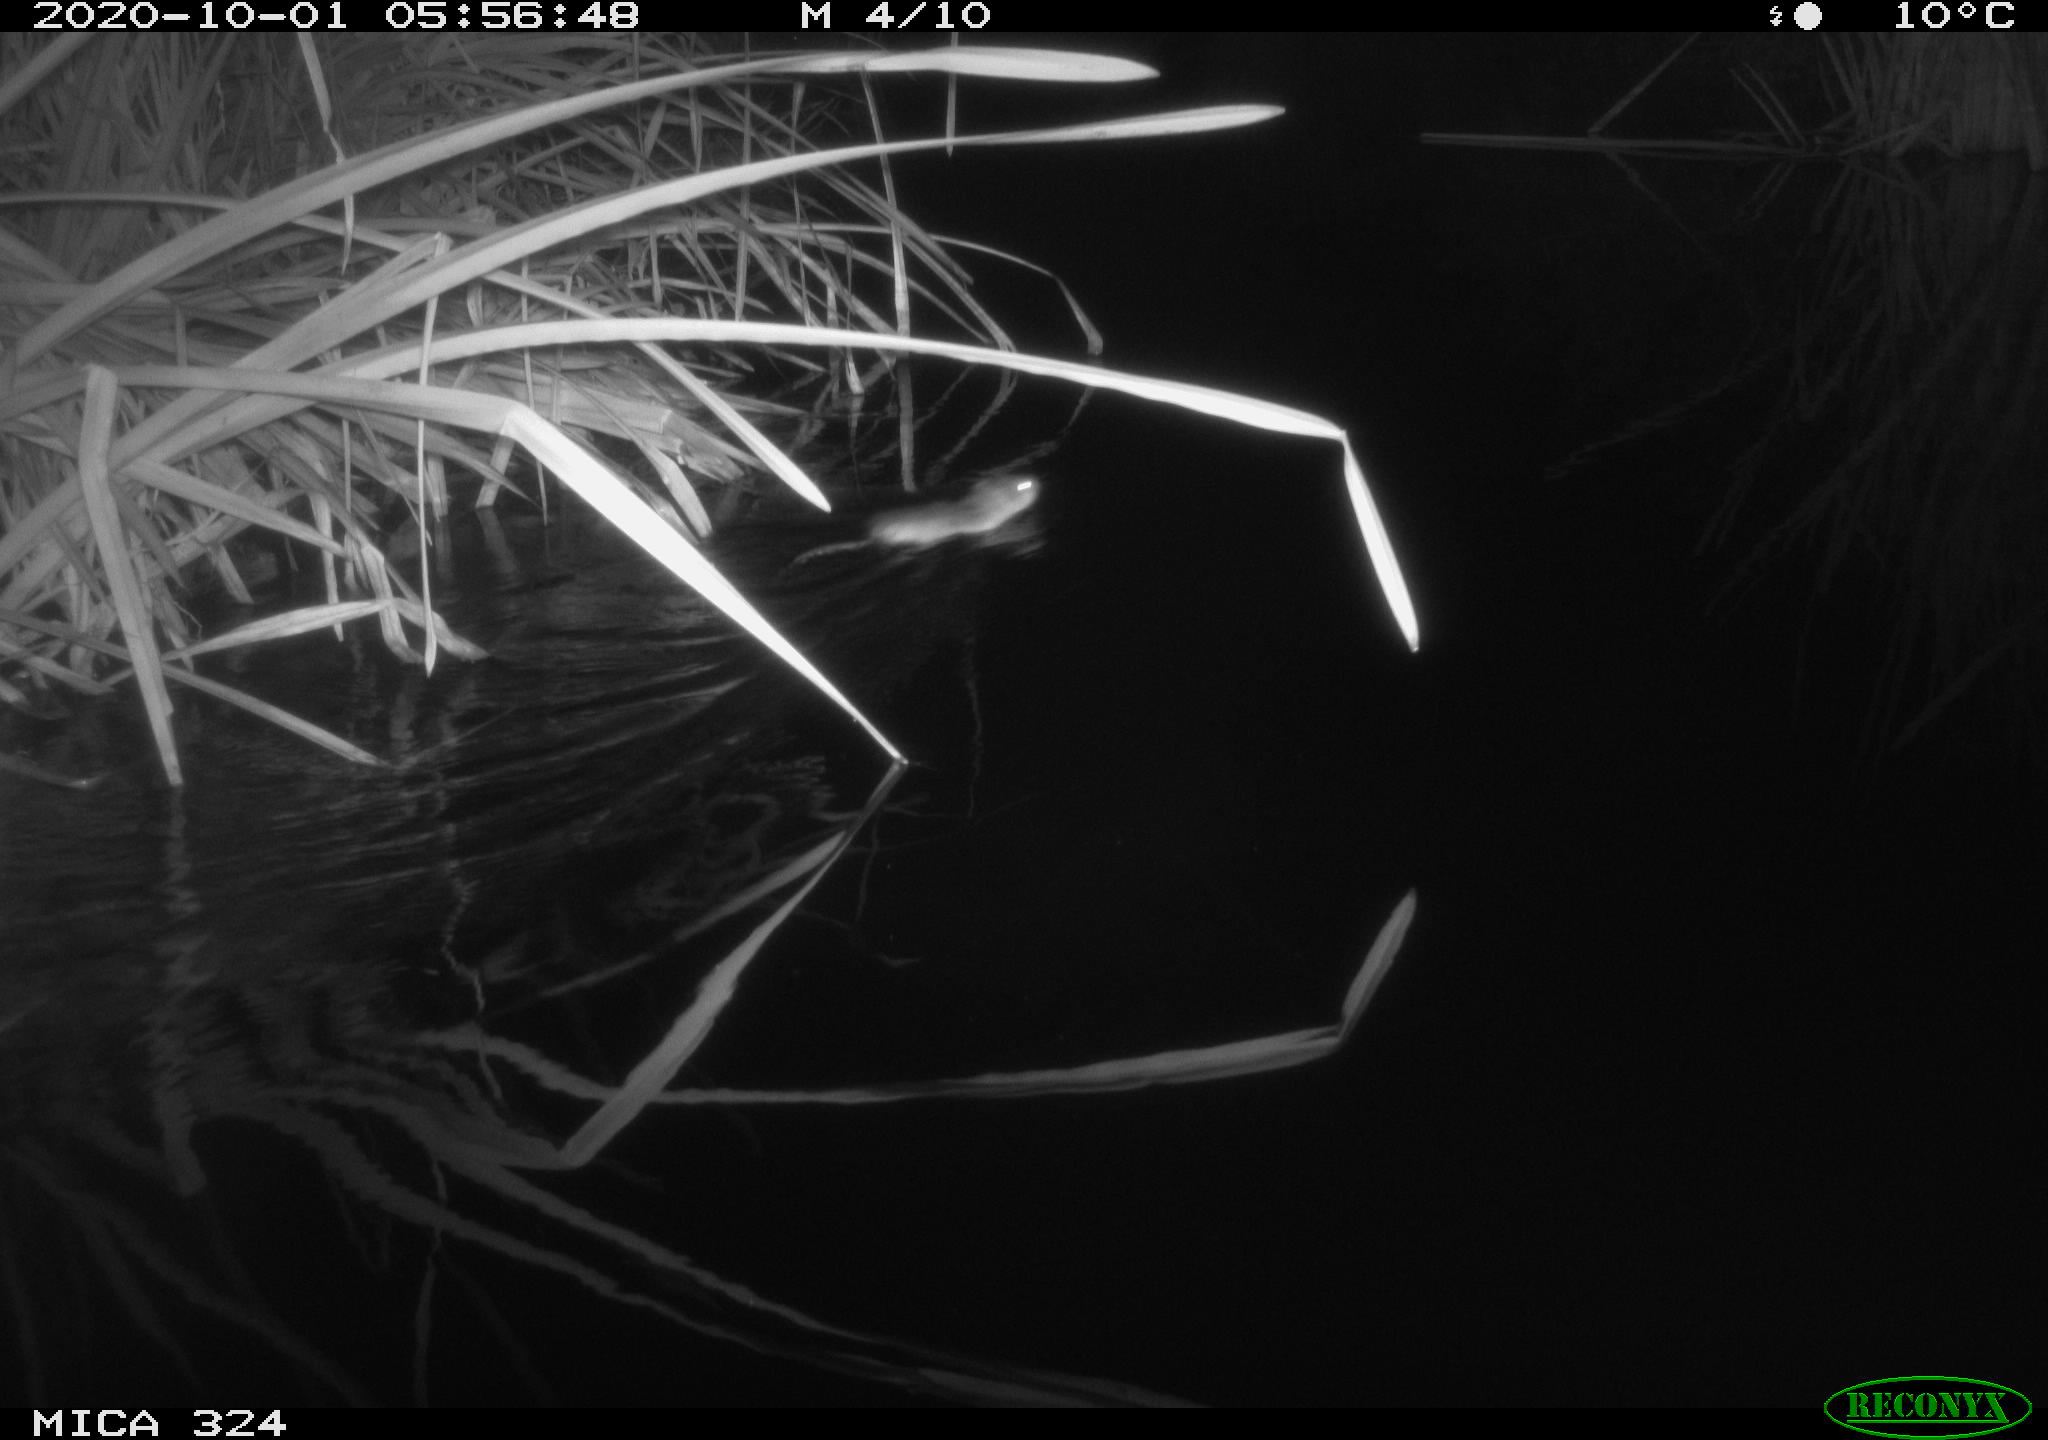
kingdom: Animalia
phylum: Chordata
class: Mammalia
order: Rodentia
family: Muridae
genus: Rattus
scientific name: Rattus norvegicus
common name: Brown rat
